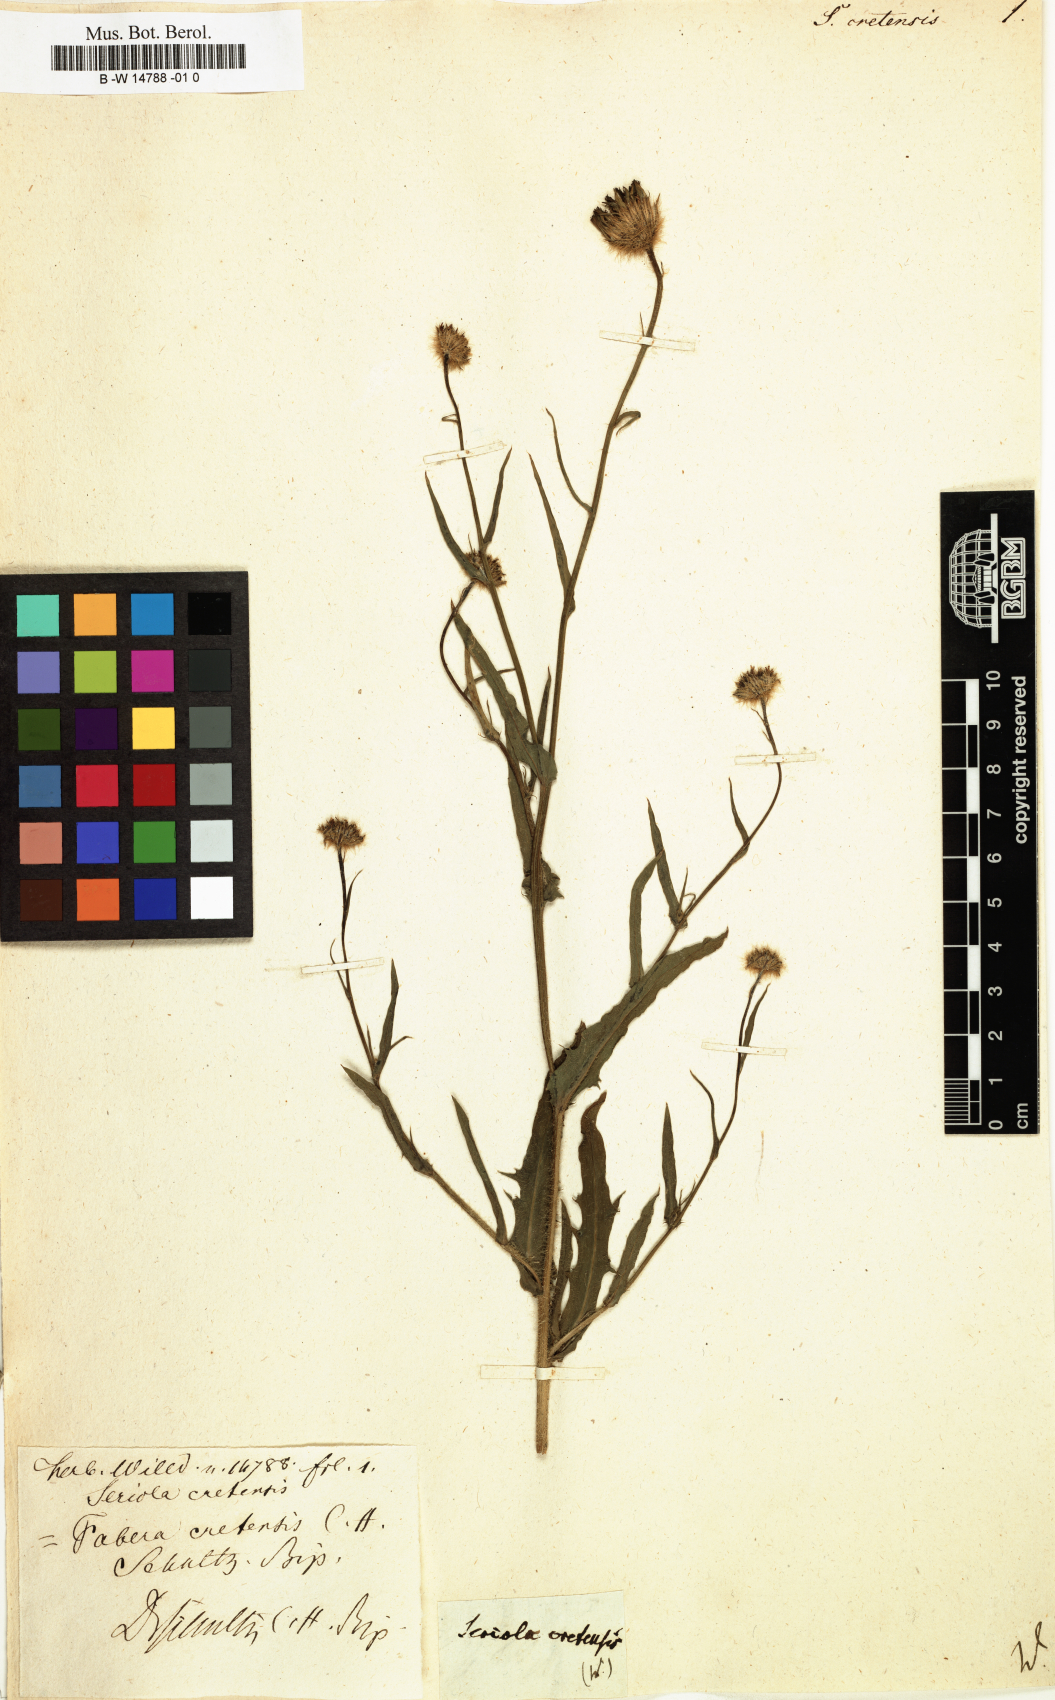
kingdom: Plantae
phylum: Tracheophyta
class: Magnoliopsida
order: Asterales
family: Asteraceae
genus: Hypochaeris
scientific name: Hypochaeris cretensis
